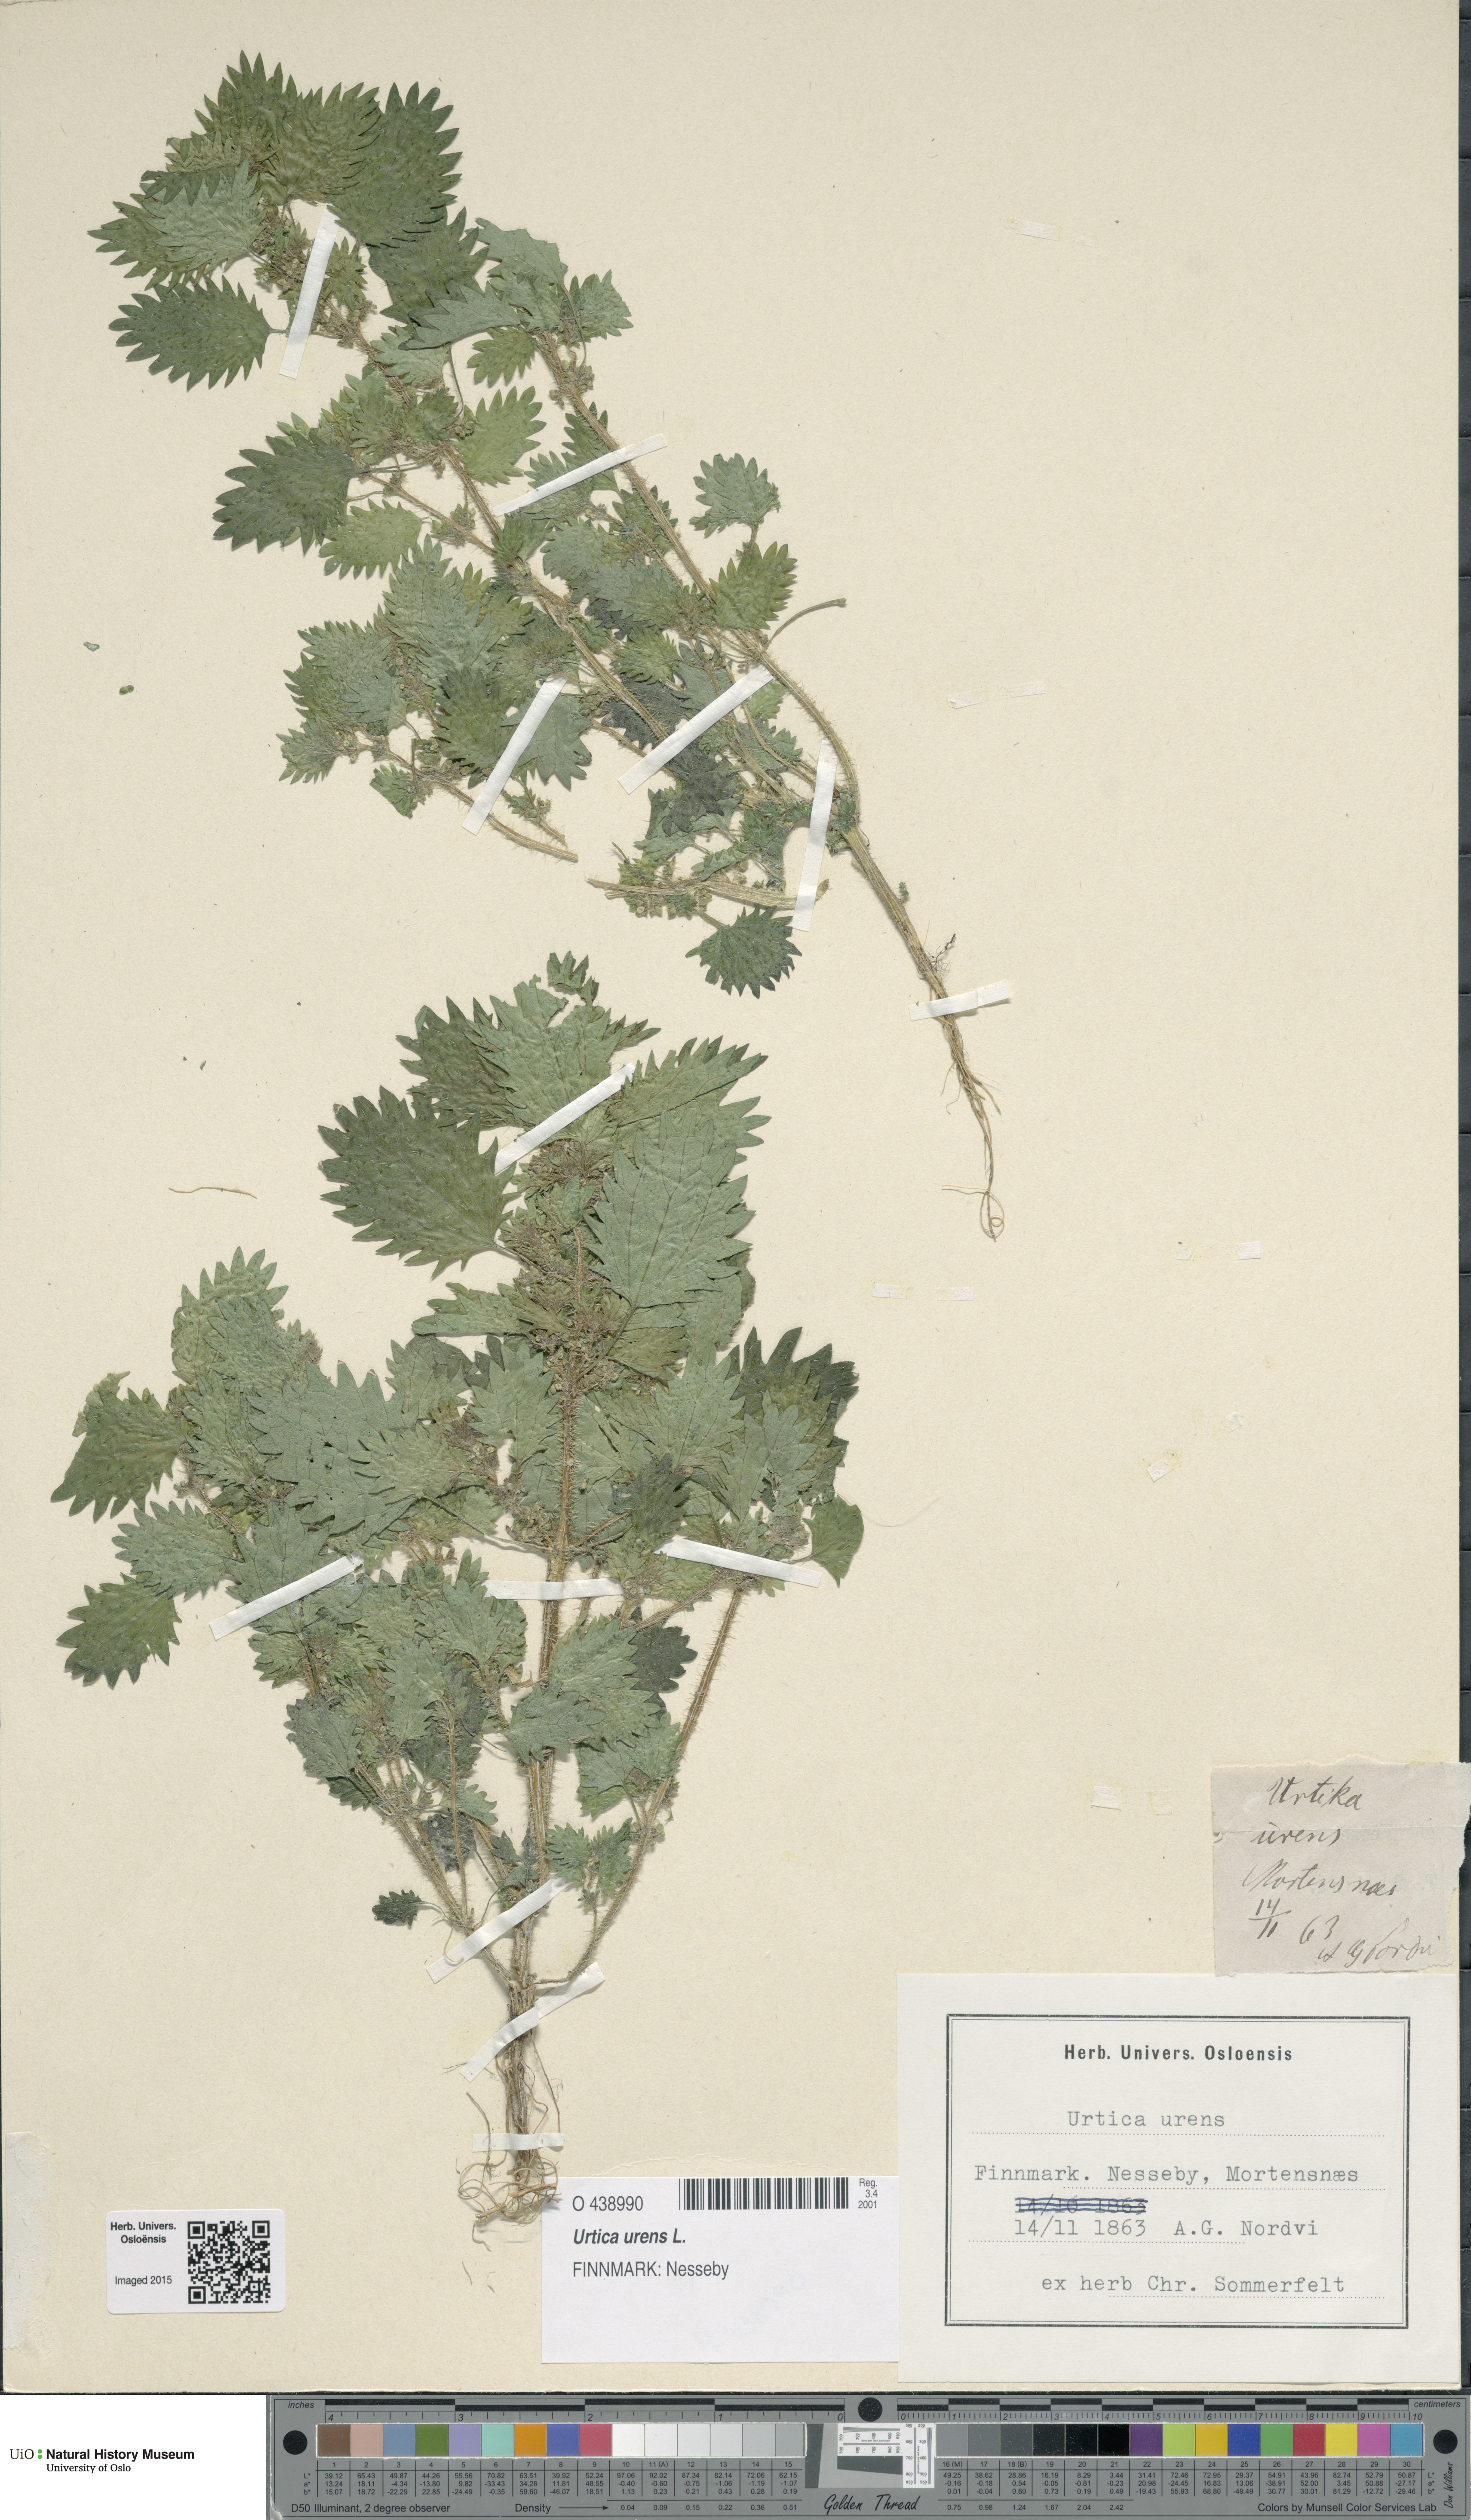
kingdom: Plantae
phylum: Tracheophyta
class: Magnoliopsida
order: Rosales
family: Urticaceae
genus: Urtica
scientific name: Urtica urens
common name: Dwarf nettle
